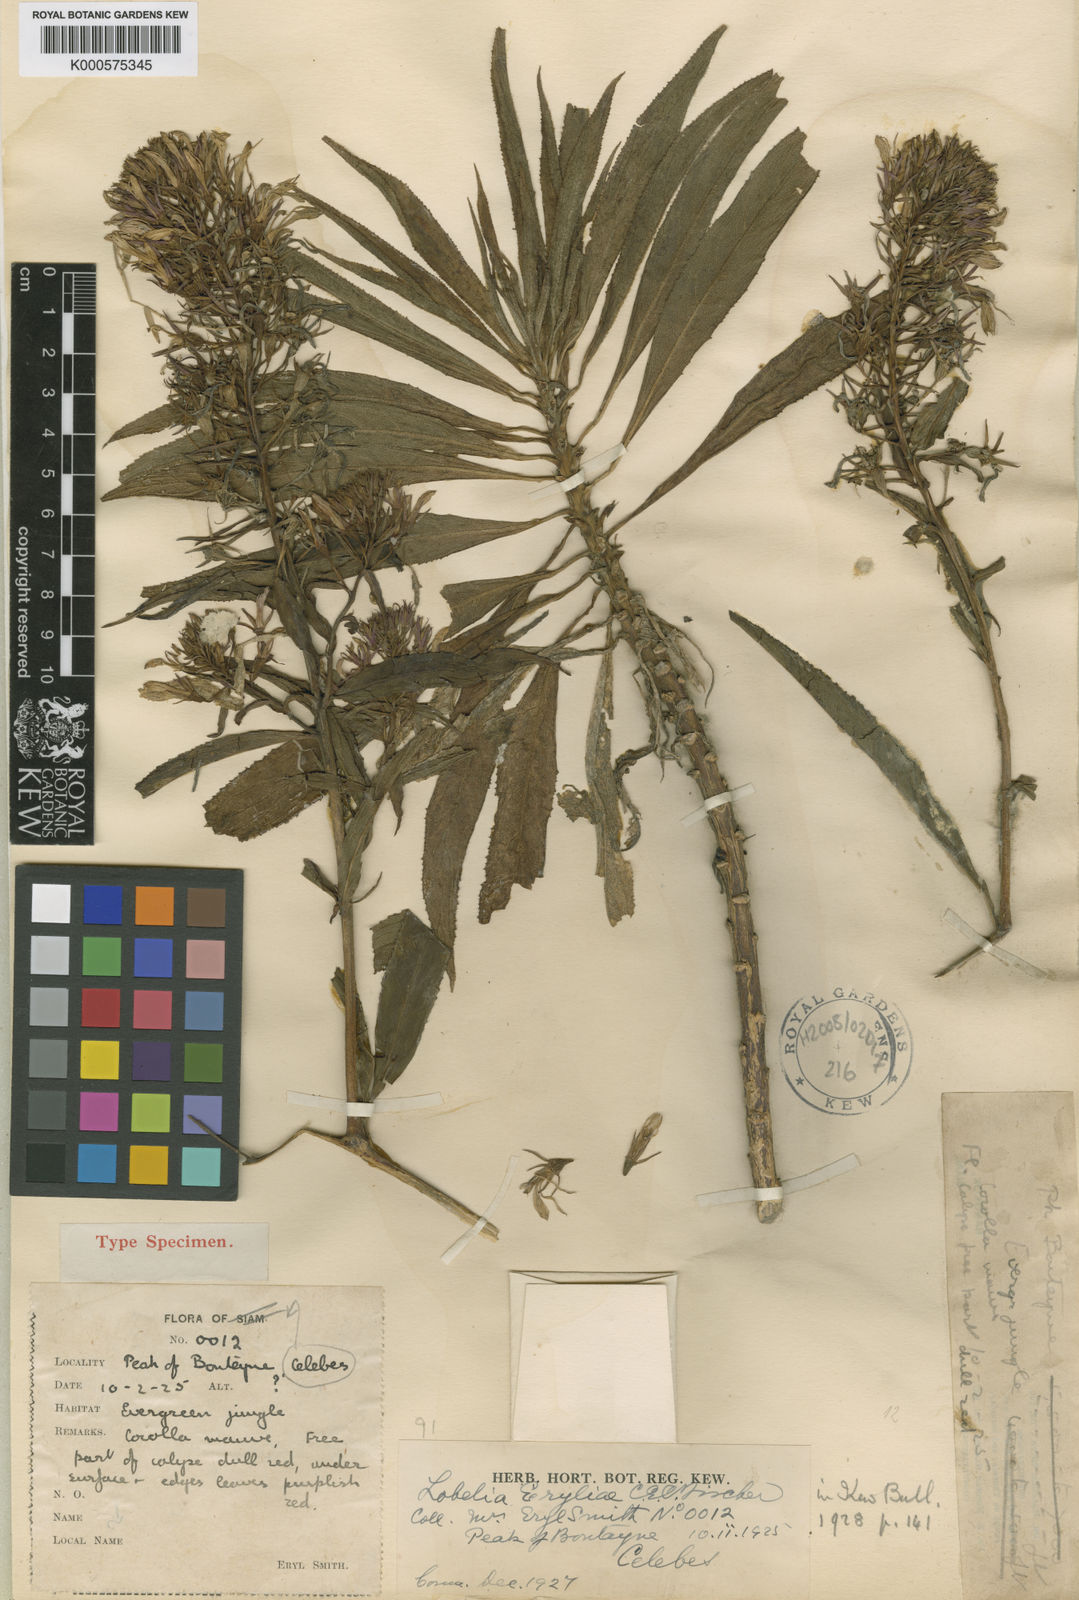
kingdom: Plantae
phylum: Tracheophyta
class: Magnoliopsida
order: Asterales
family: Campanulaceae
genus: Lobelia
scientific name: Lobelia
